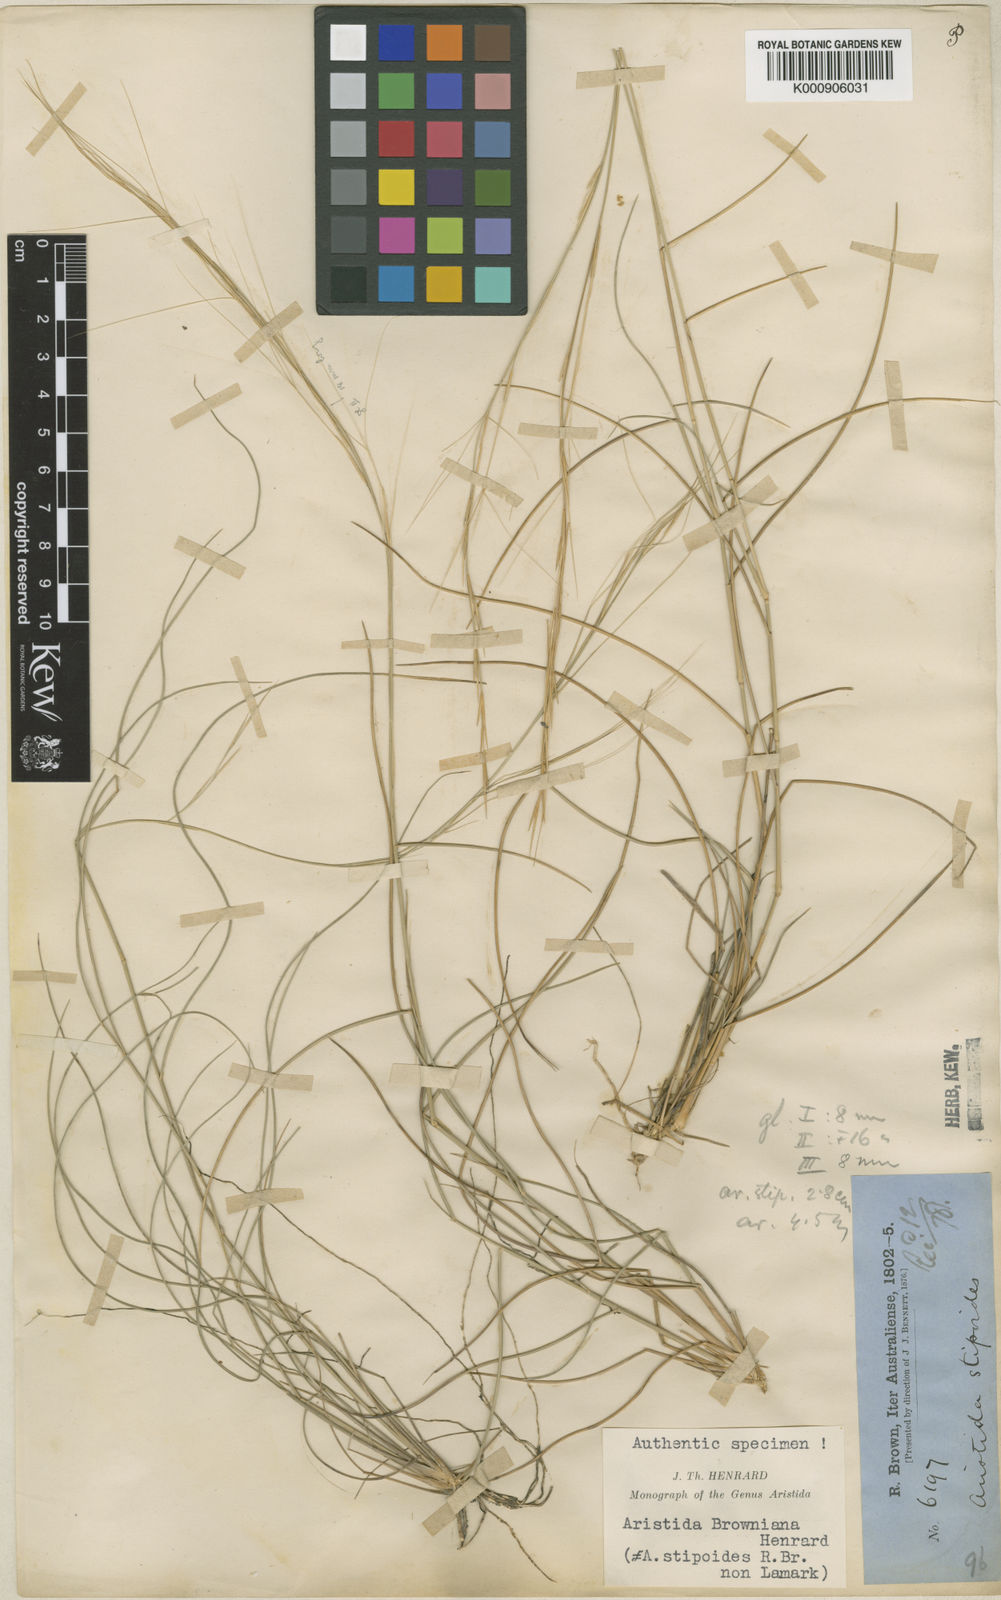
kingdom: Plantae
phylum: Tracheophyta
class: Liliopsida
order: Poales
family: Poaceae
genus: Aristida
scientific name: Aristida holathera
